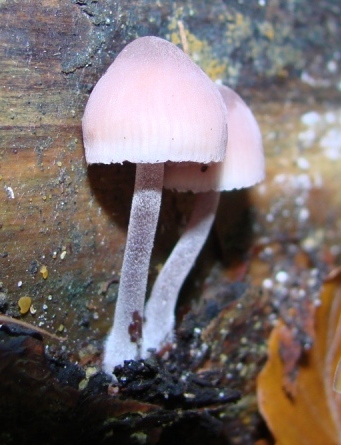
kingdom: Fungi
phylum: Basidiomycota
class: Agaricomycetes
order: Agaricales
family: Mycenaceae
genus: Mycena
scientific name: Mycena haematopus
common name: blødende huesvamp
